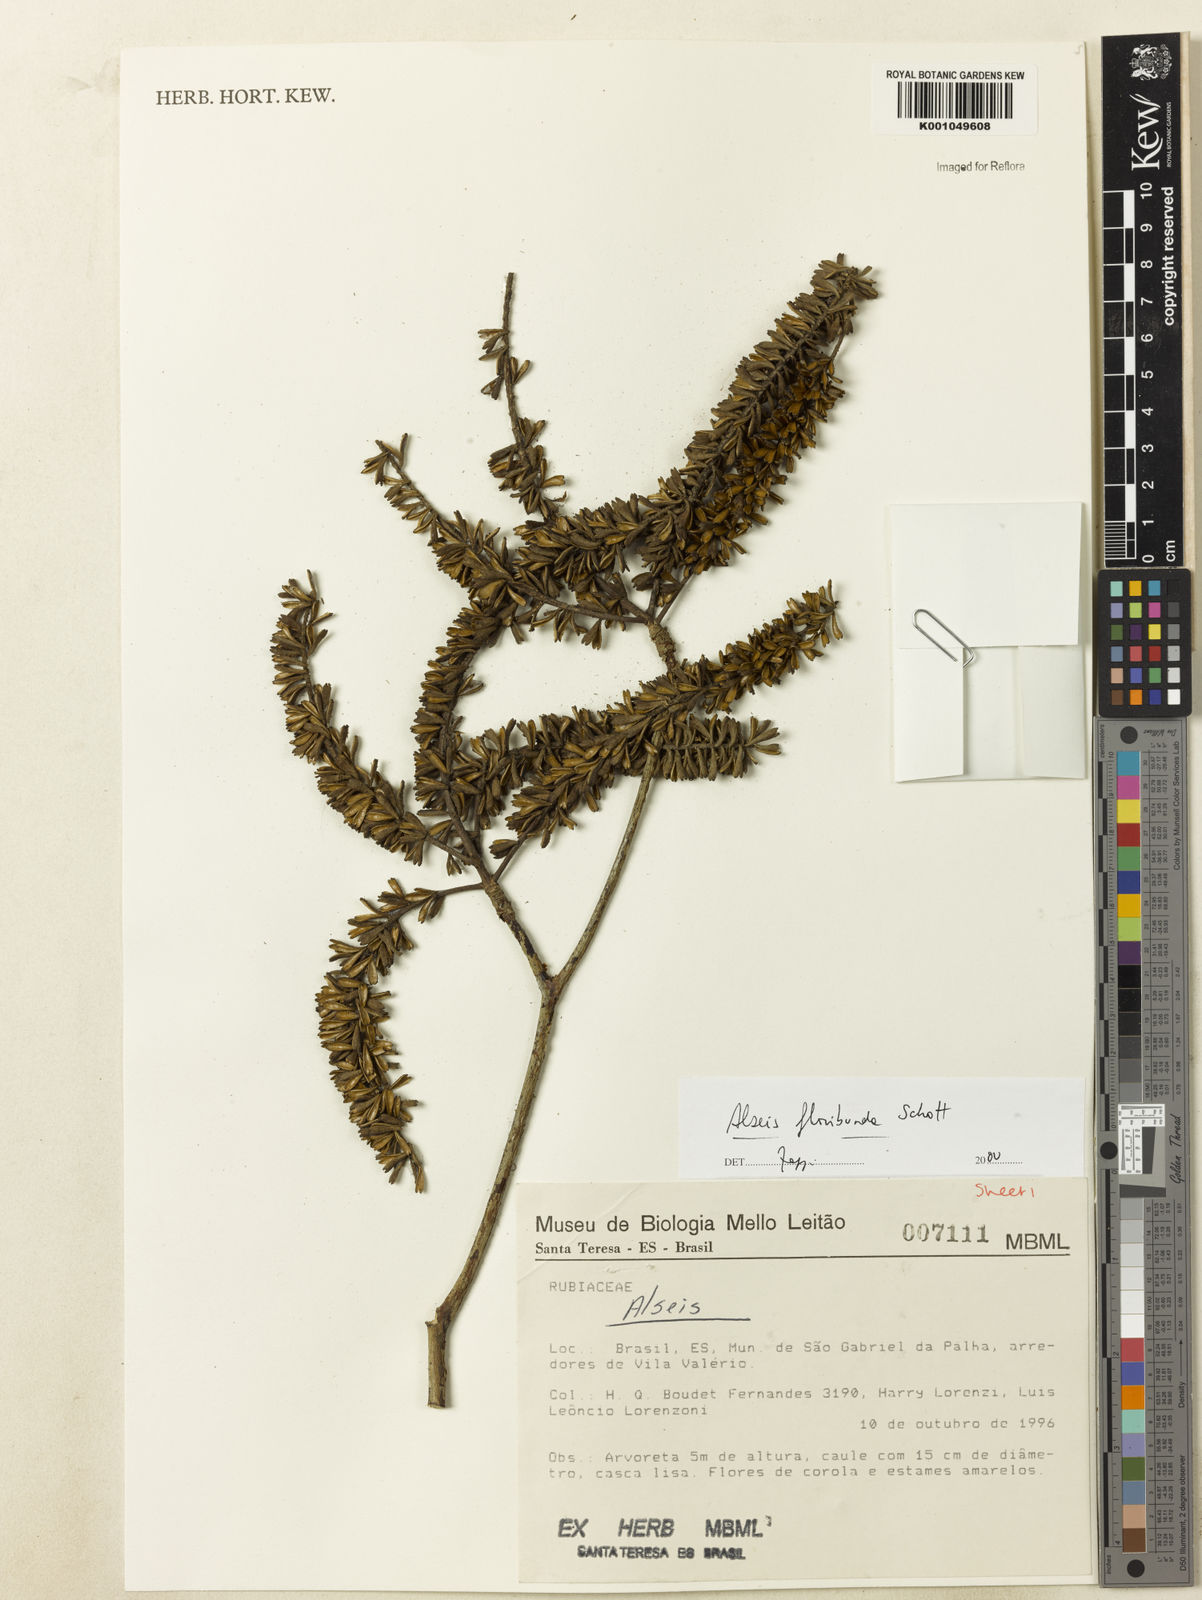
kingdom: Plantae
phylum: Tracheophyta
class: Magnoliopsida
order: Gentianales
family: Rubiaceae
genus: Alseis
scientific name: Alseis floribunda
